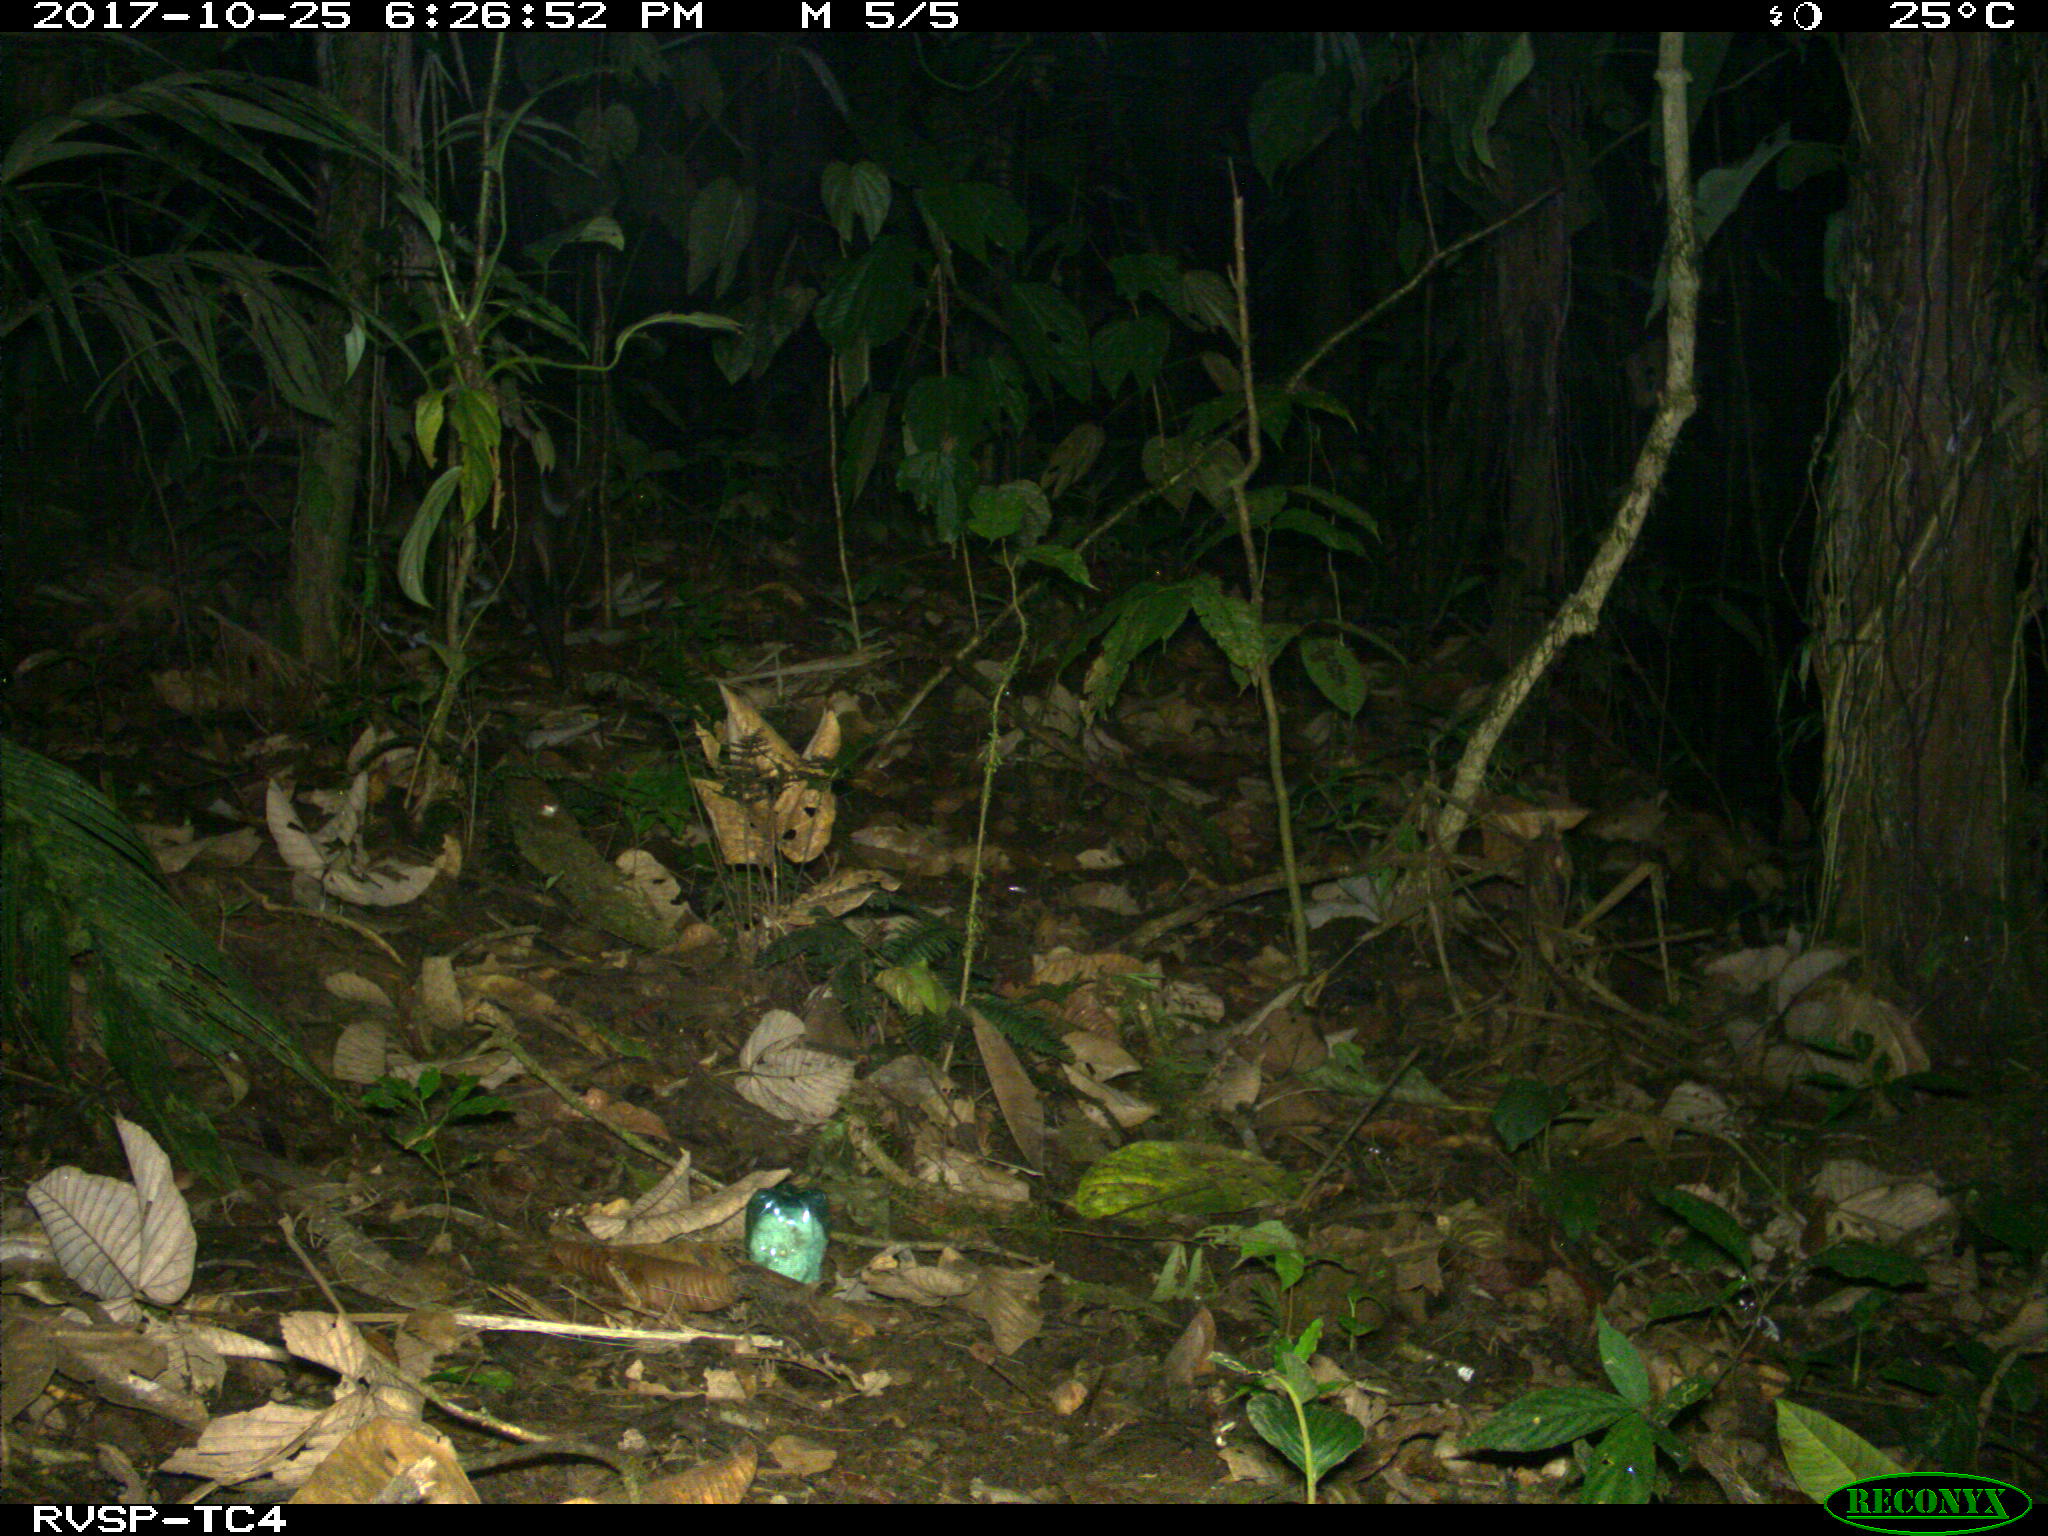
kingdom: Animalia
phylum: Chordata
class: Mammalia
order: Artiodactyla
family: Cervidae
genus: Mazama
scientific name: Mazama americana
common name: Red brocket
